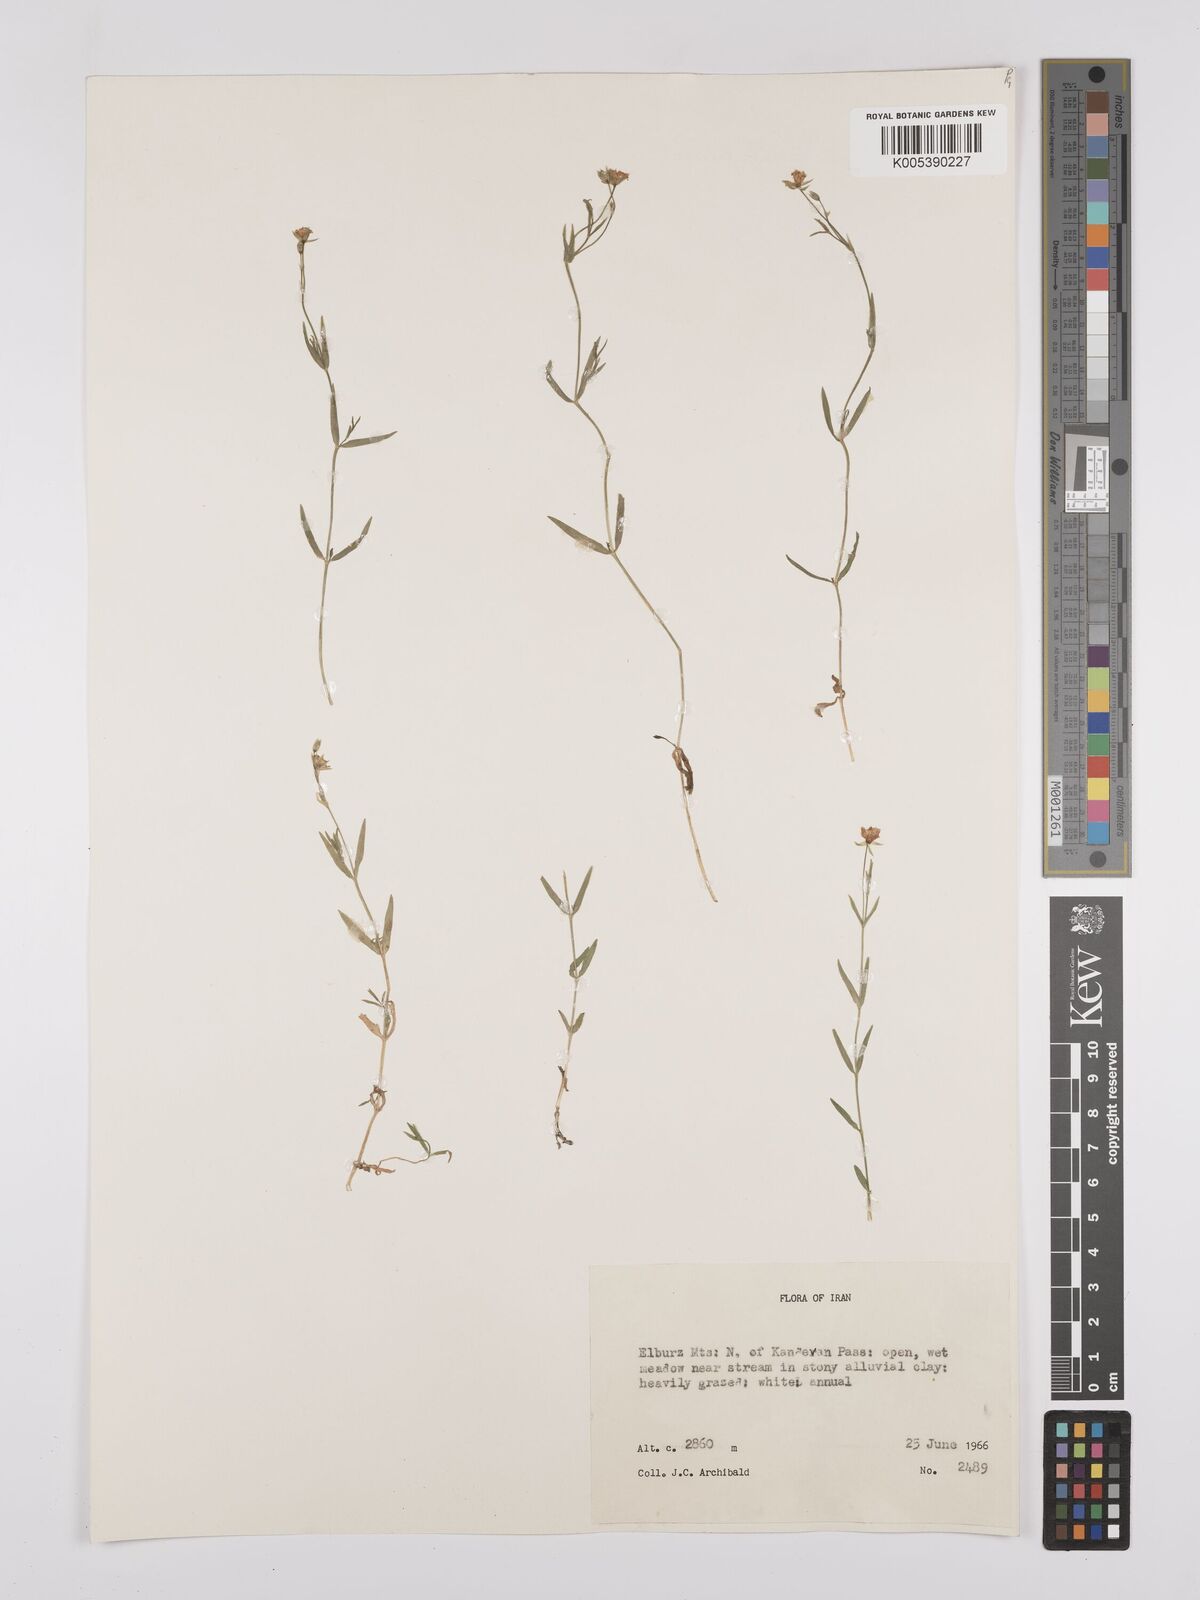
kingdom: Plantae
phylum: Tracheophyta
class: Magnoliopsida
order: Caryophyllales
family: Caryophyllaceae
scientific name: Caryophyllaceae
